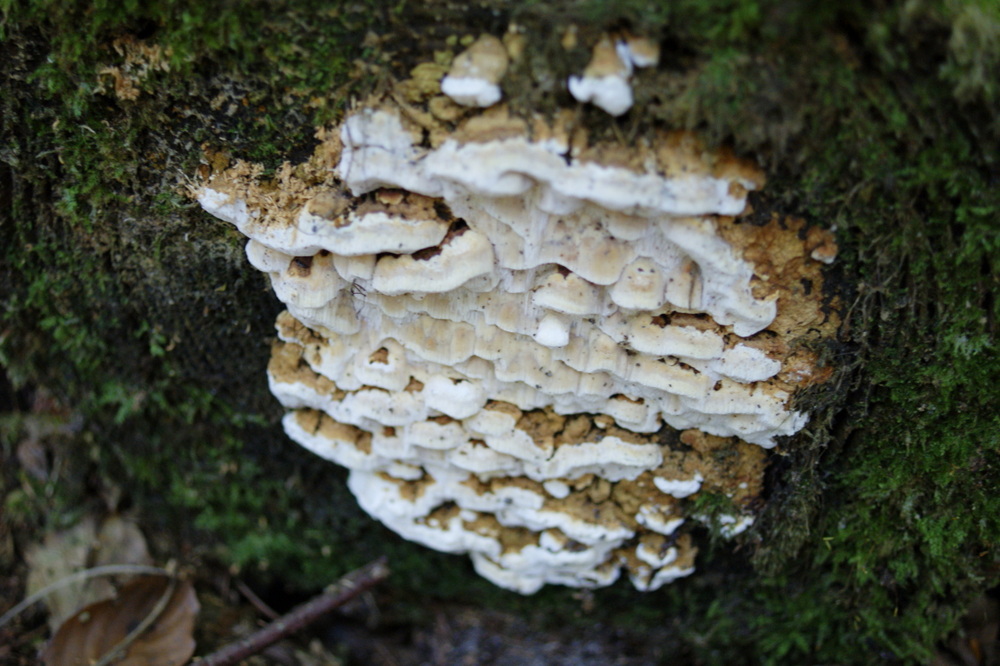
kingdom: Fungi
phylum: Basidiomycota
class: Agaricomycetes
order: Polyporales
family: Fomitopsidaceae
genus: Neoantrodia
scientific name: Neoantrodia serialis
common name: række-sejporesvamp
